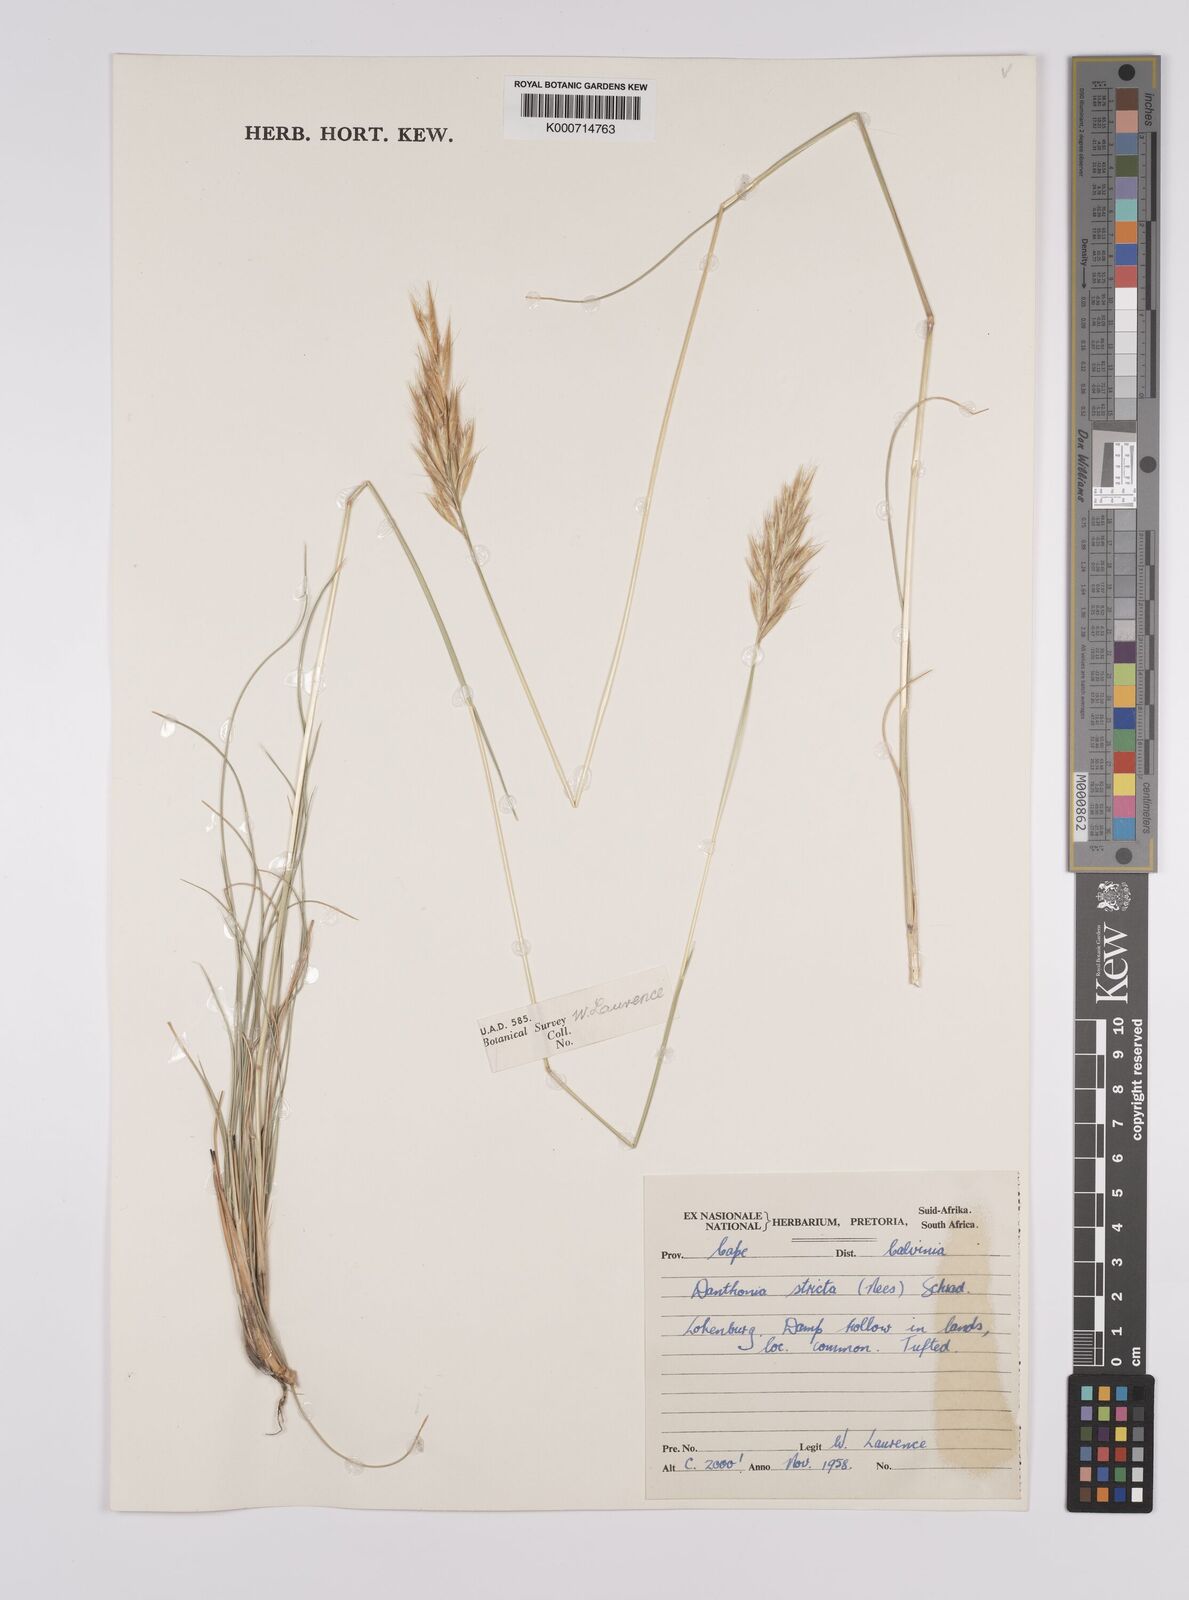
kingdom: Plantae
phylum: Tracheophyta
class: Liliopsida
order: Poales
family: Poaceae
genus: Rytidosperma
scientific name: Rytidosperma
